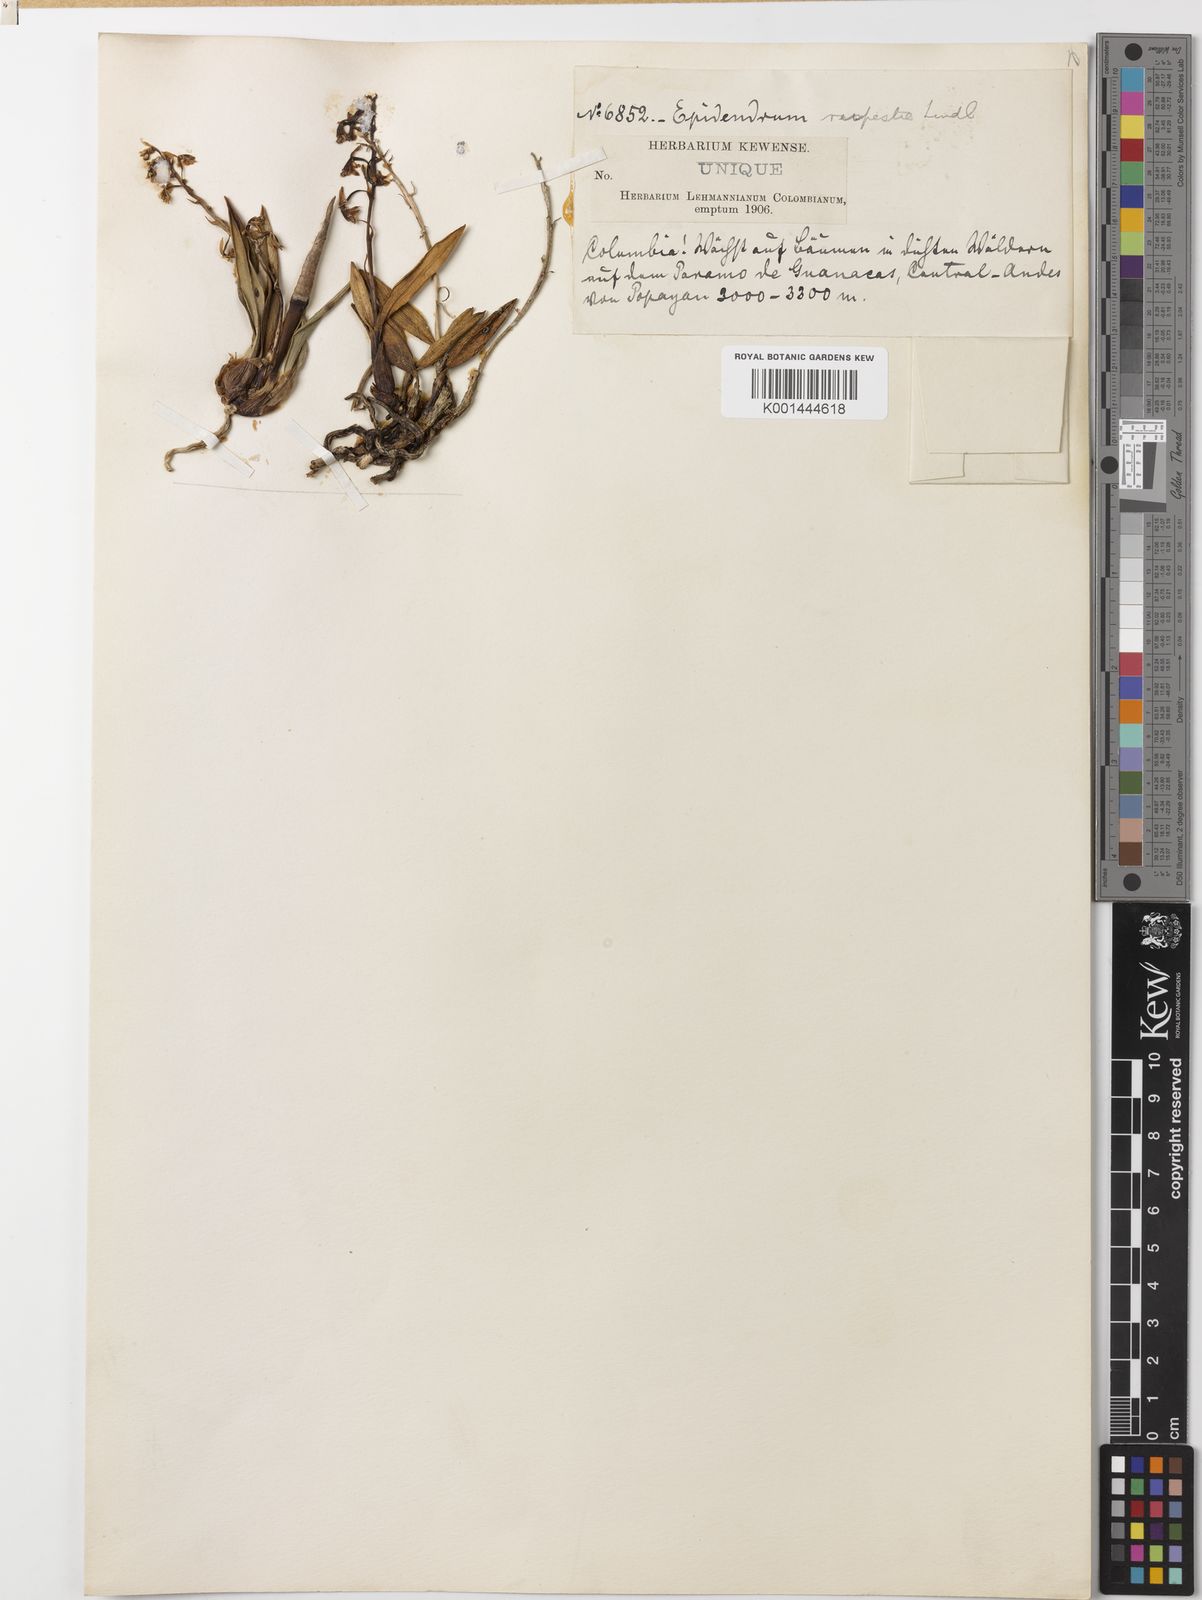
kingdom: Plantae
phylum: Tracheophyta
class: Liliopsida
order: Asparagales
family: Orchidaceae
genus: Epidendrum
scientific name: Epidendrum rupestre
